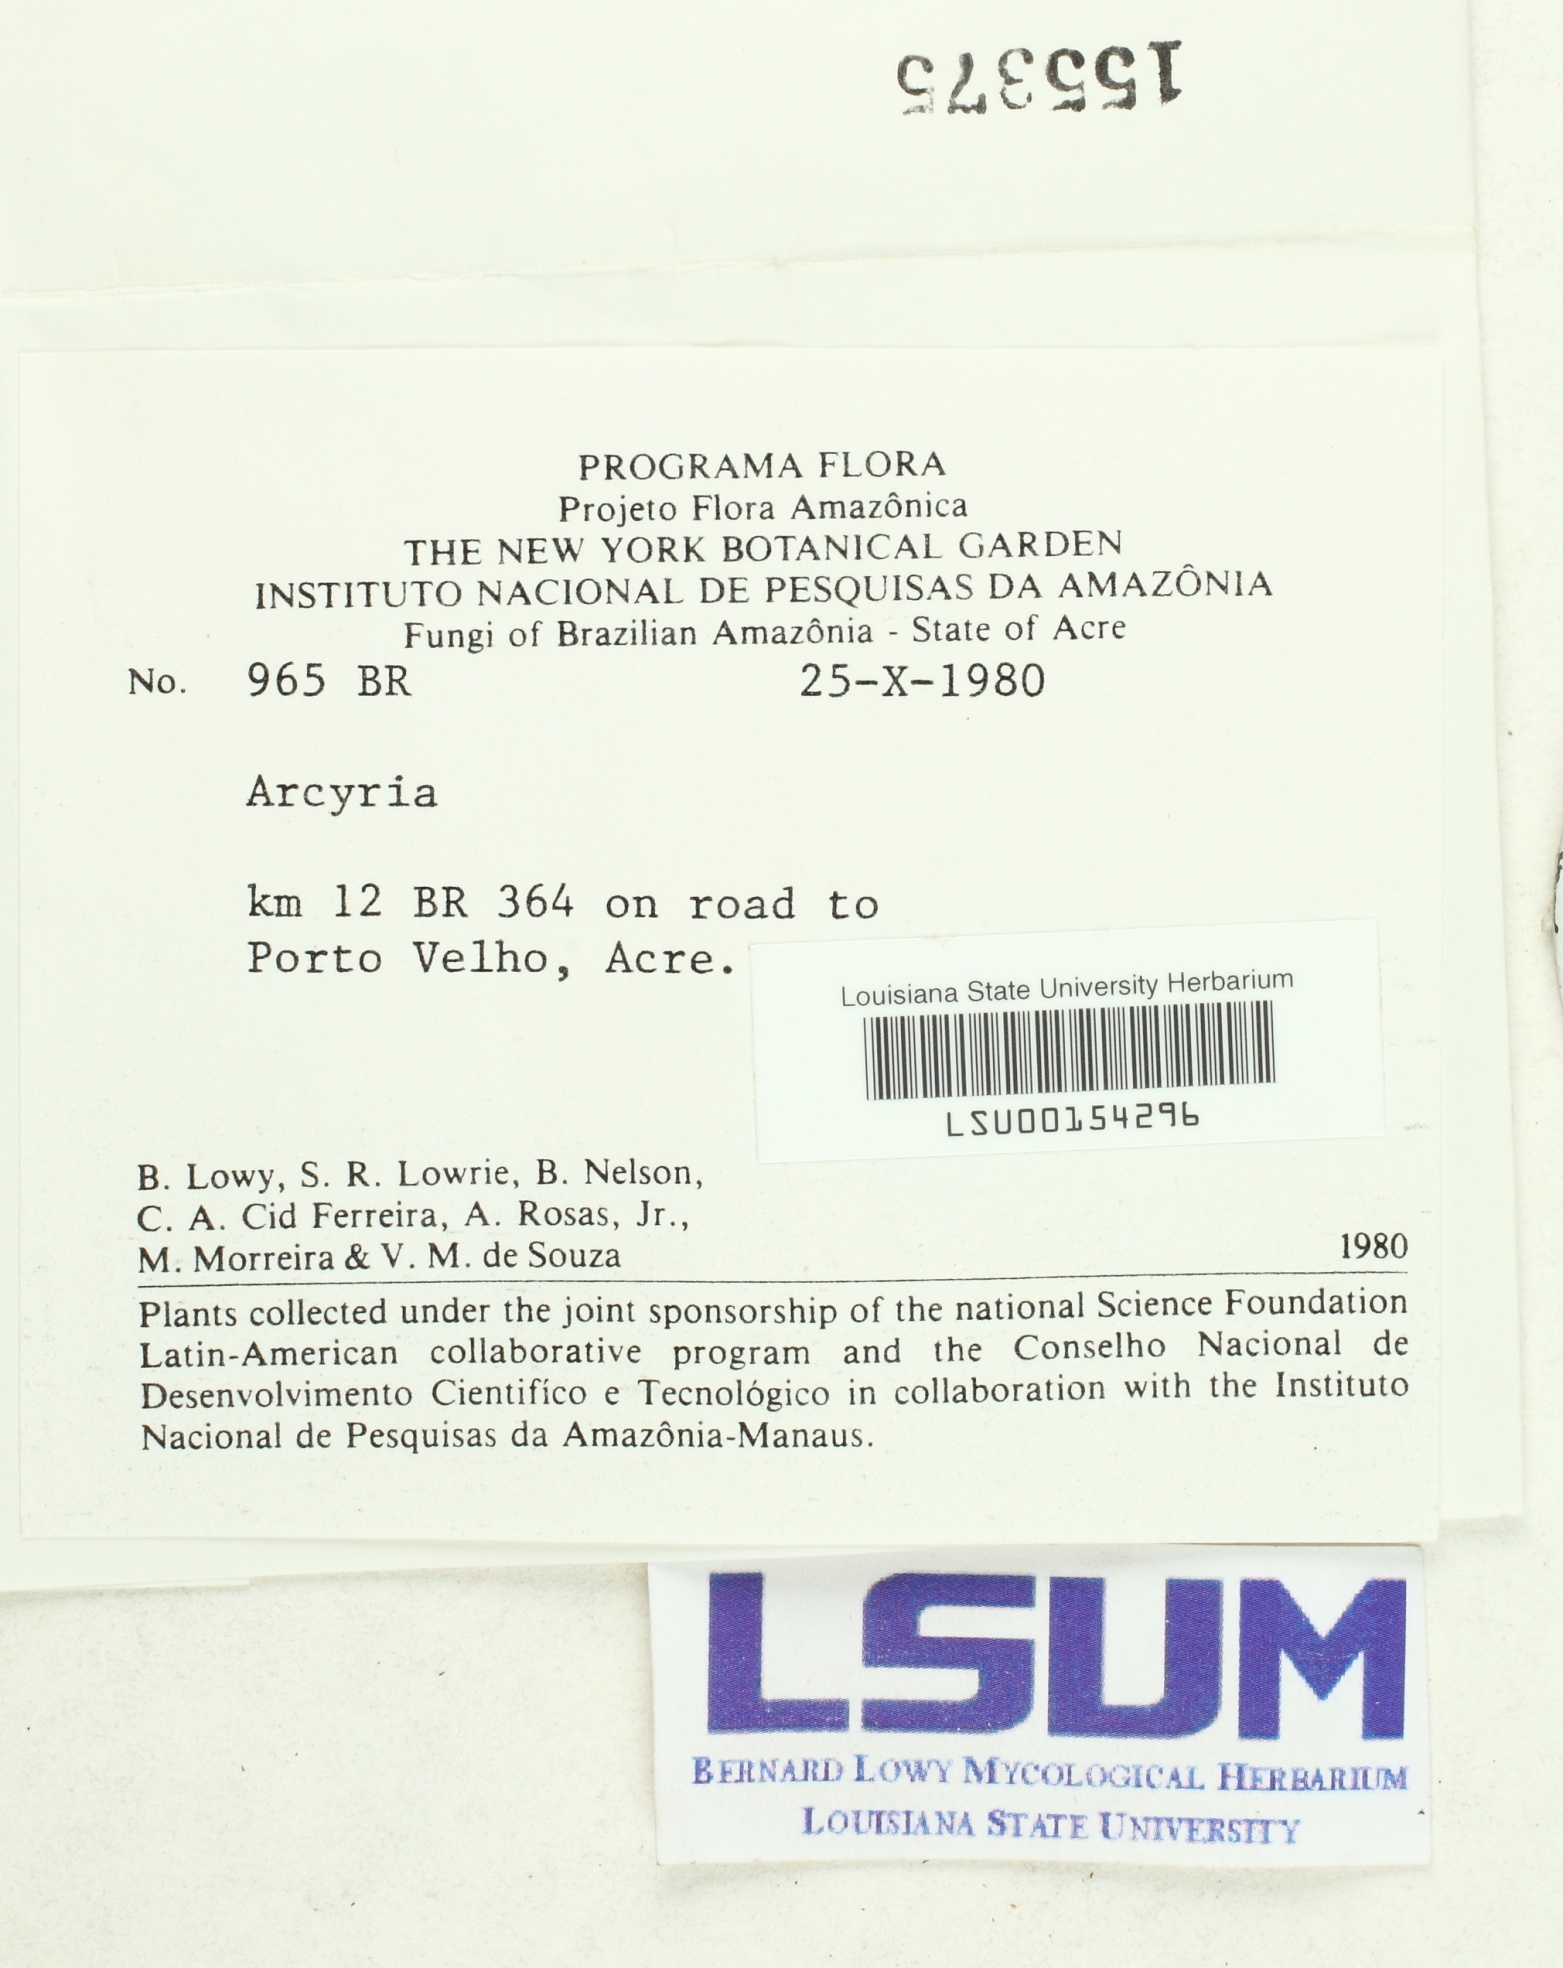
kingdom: Protozoa
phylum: Mycetozoa
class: Myxomycetes
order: Trichiales
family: Arcyriaceae
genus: Arcyria
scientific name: Arcyria
